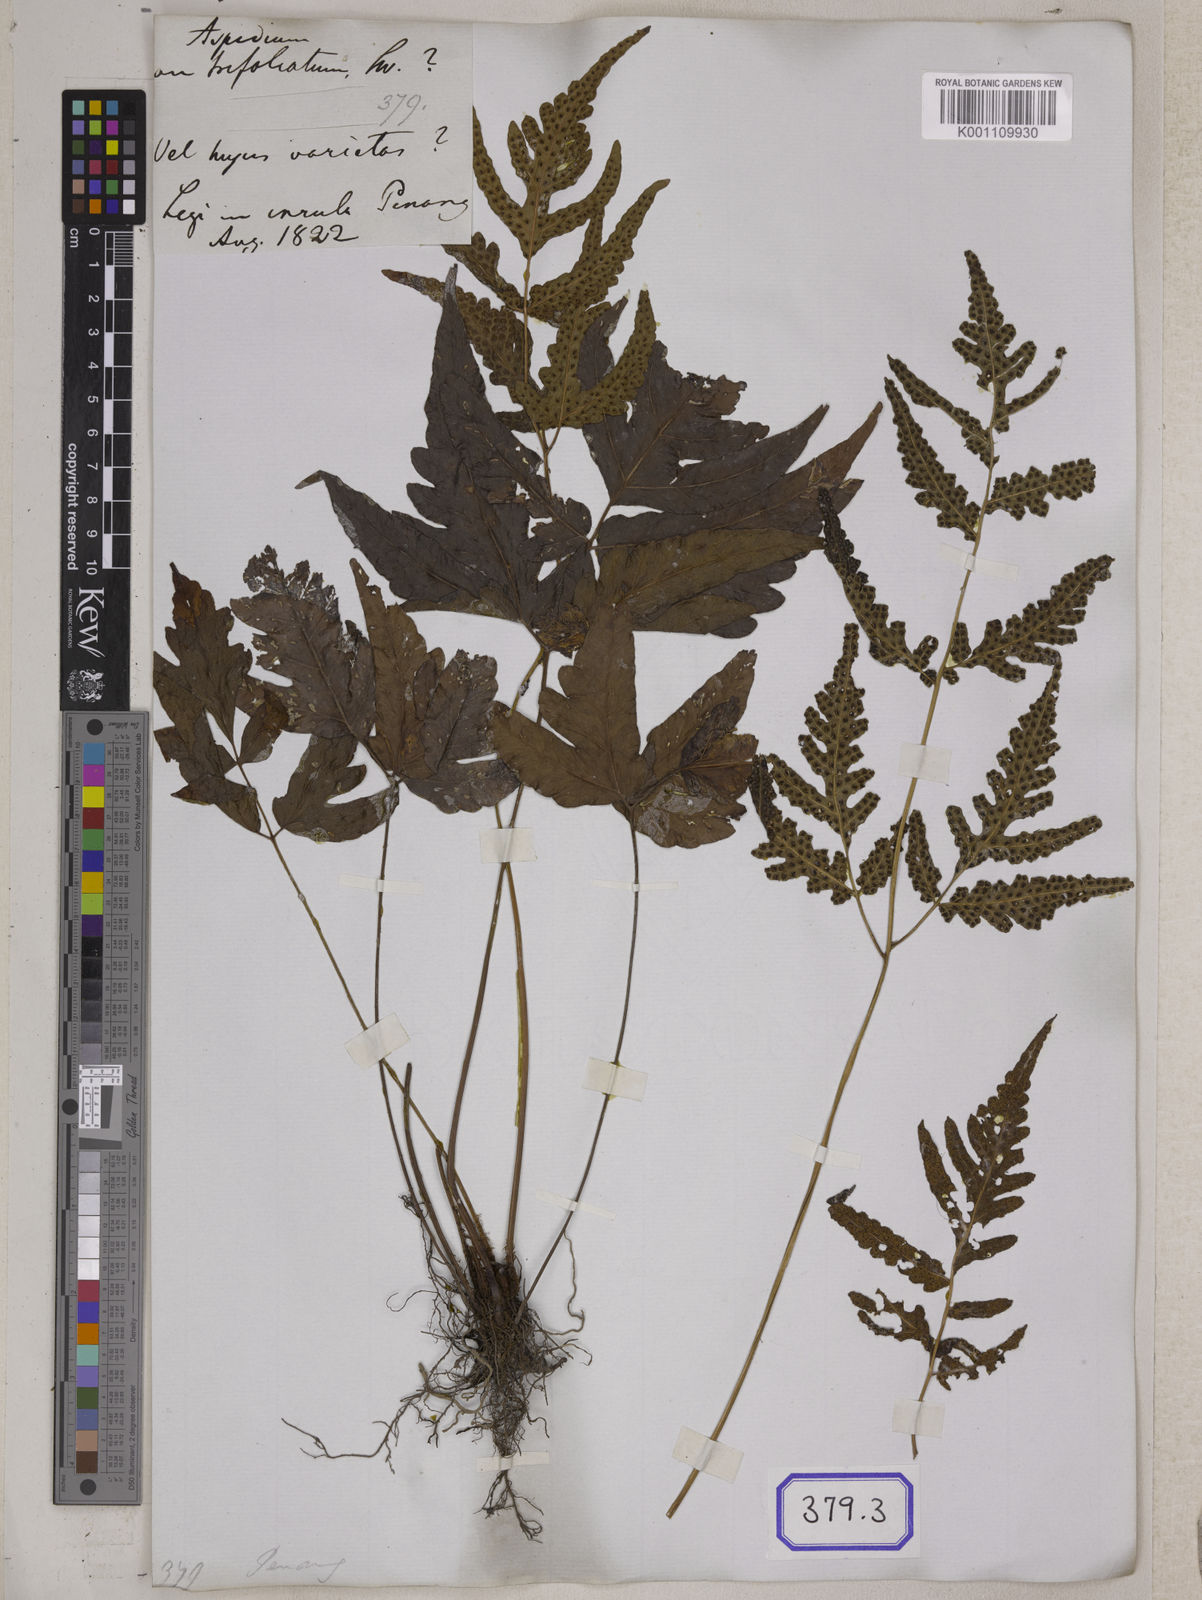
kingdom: Plantae
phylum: Tracheophyta
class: Polypodiopsida
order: Polypodiales
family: Tectariaceae
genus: Tectaria
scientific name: Tectaria impressa
